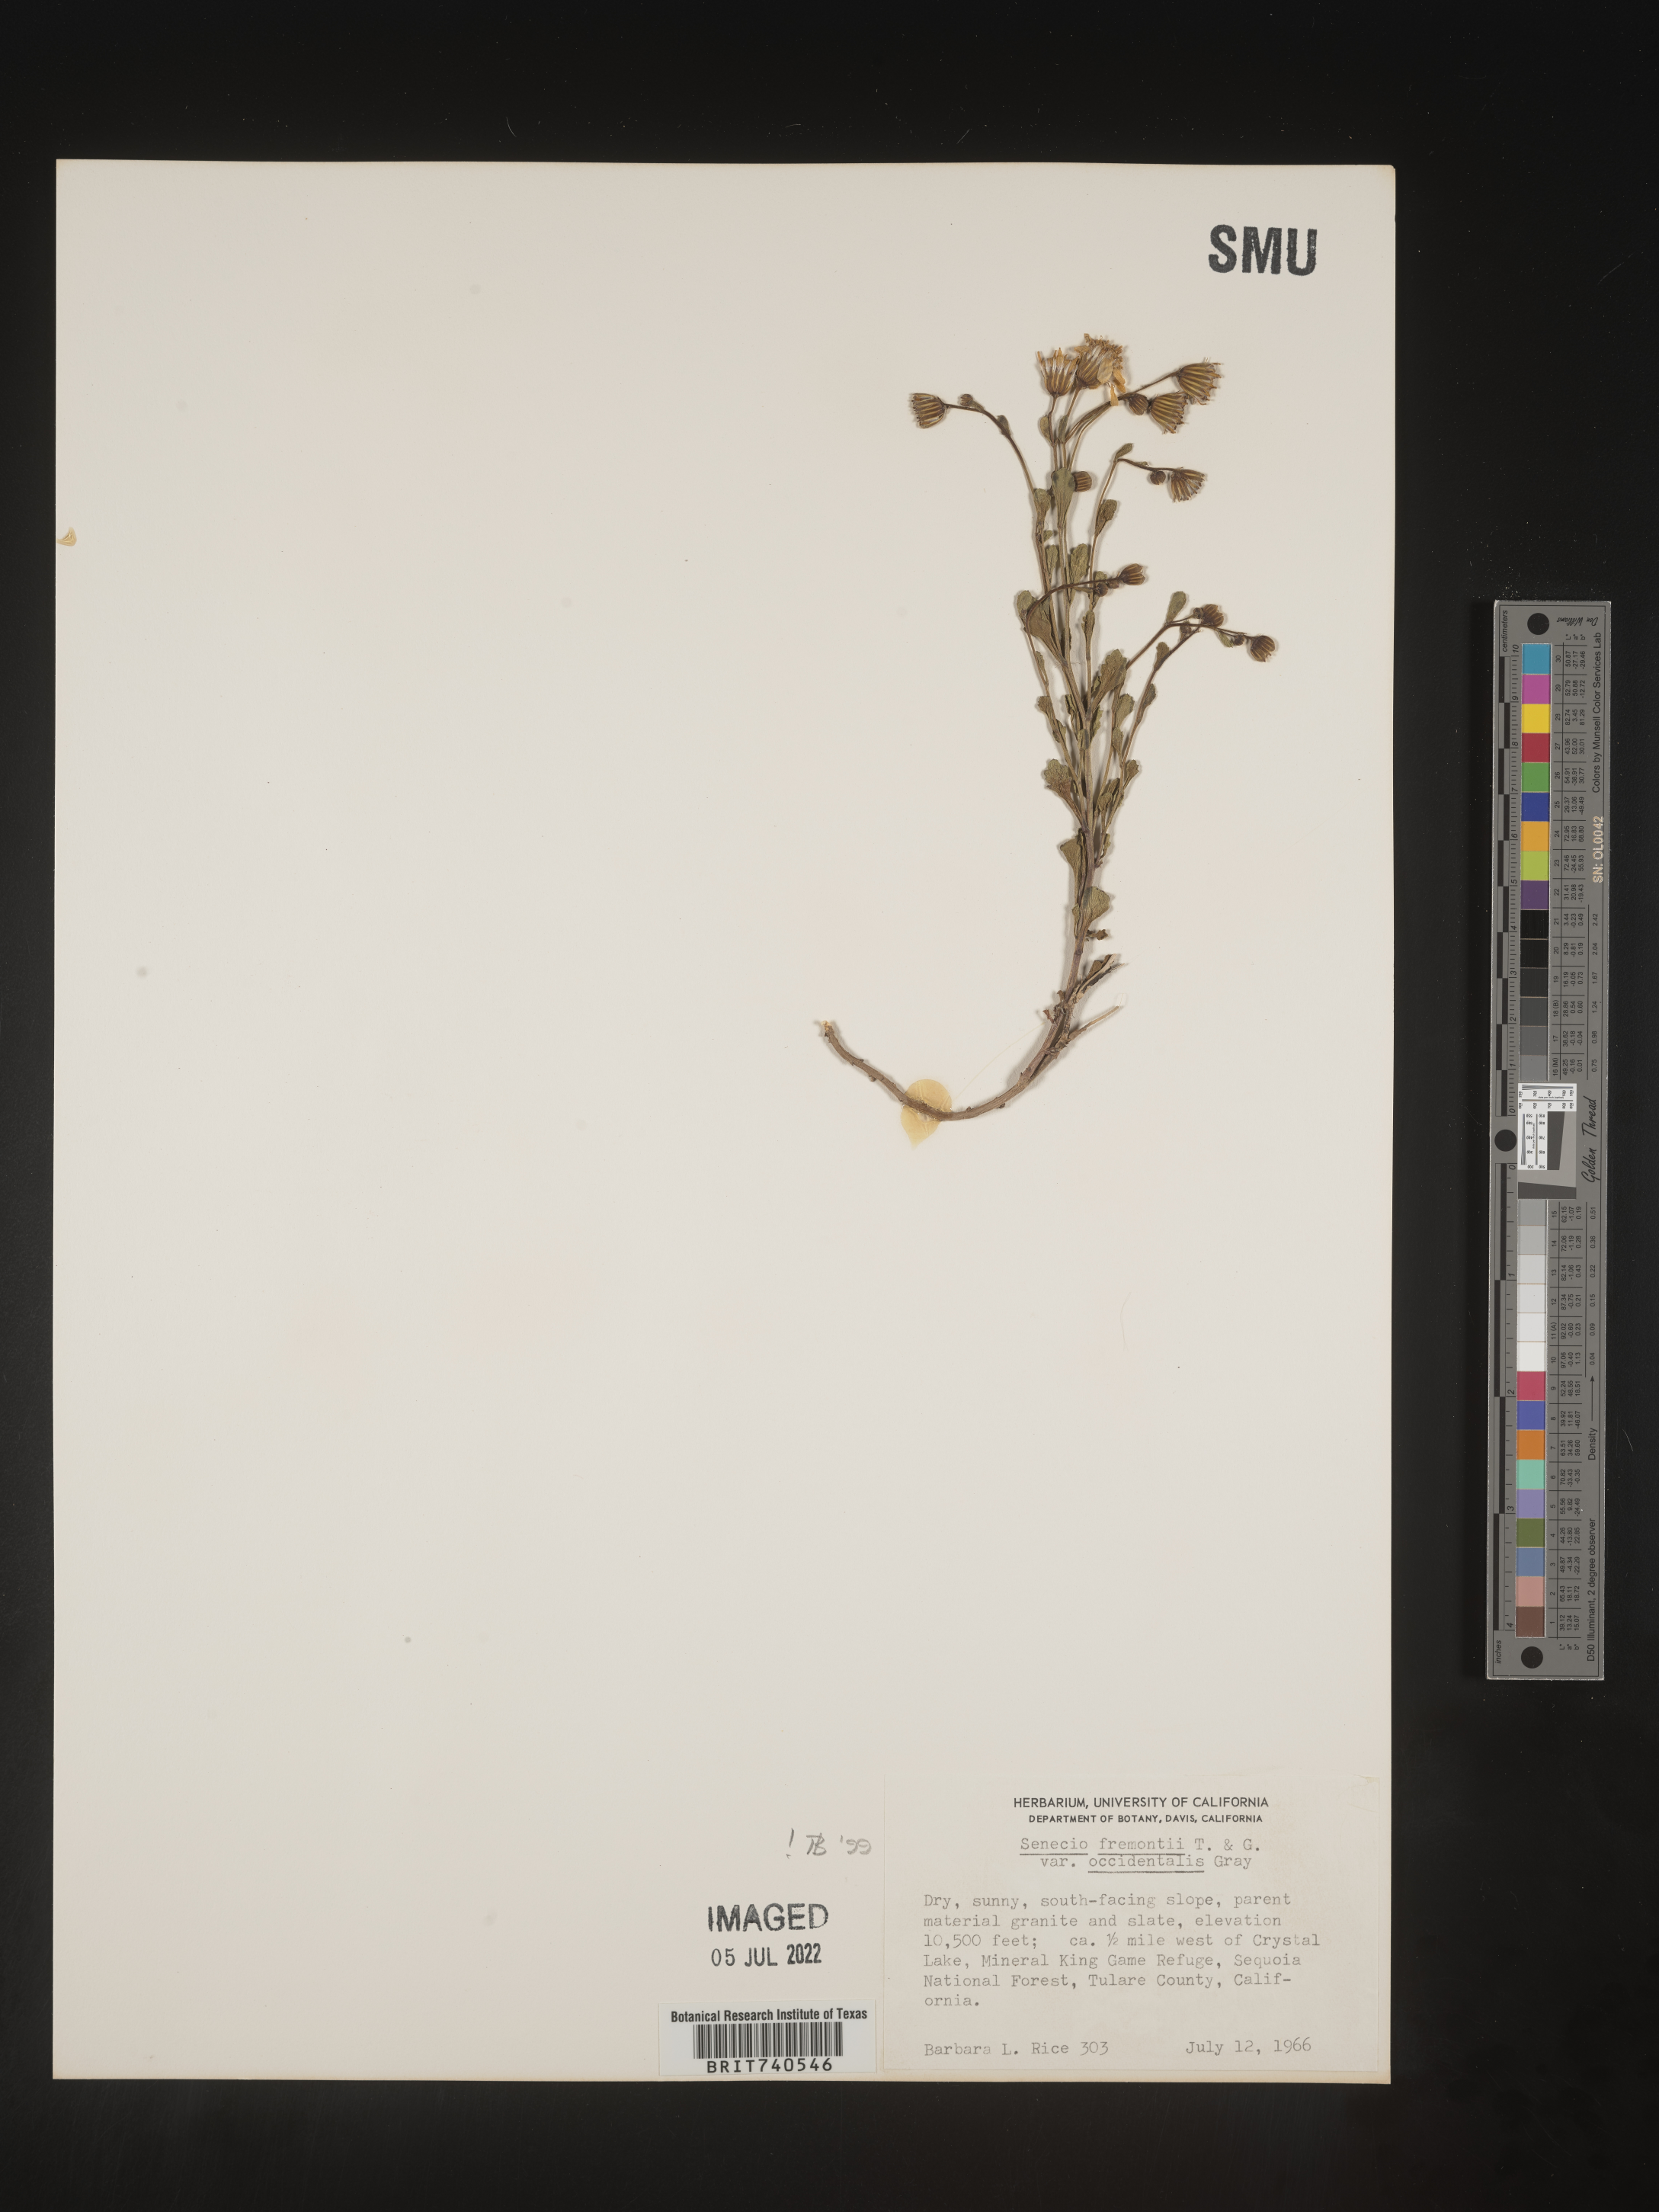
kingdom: Plantae
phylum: Tracheophyta
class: Magnoliopsida
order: Asterales
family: Asteraceae
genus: Senecio
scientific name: Senecio fremontii
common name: Fremont's groundsel
